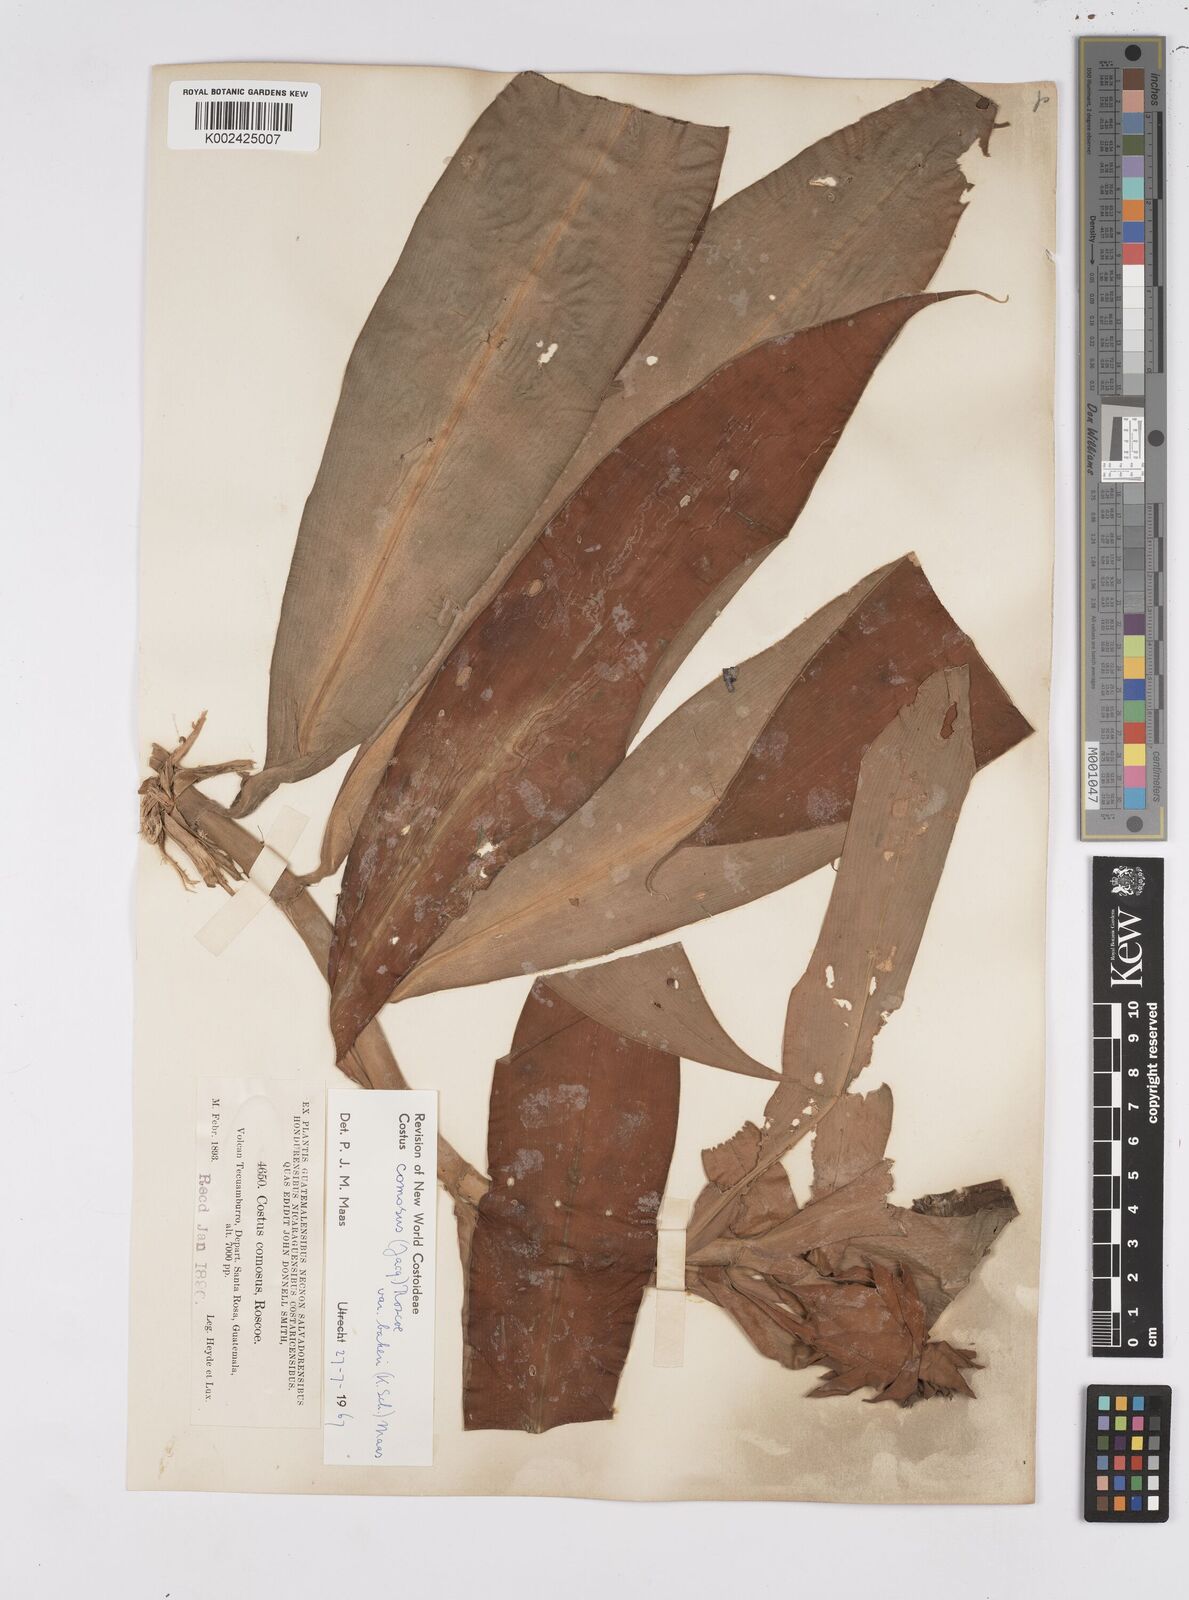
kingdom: Plantae
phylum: Tracheophyta
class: Liliopsida
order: Zingiberales
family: Costaceae
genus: Costus
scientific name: Costus comosus
